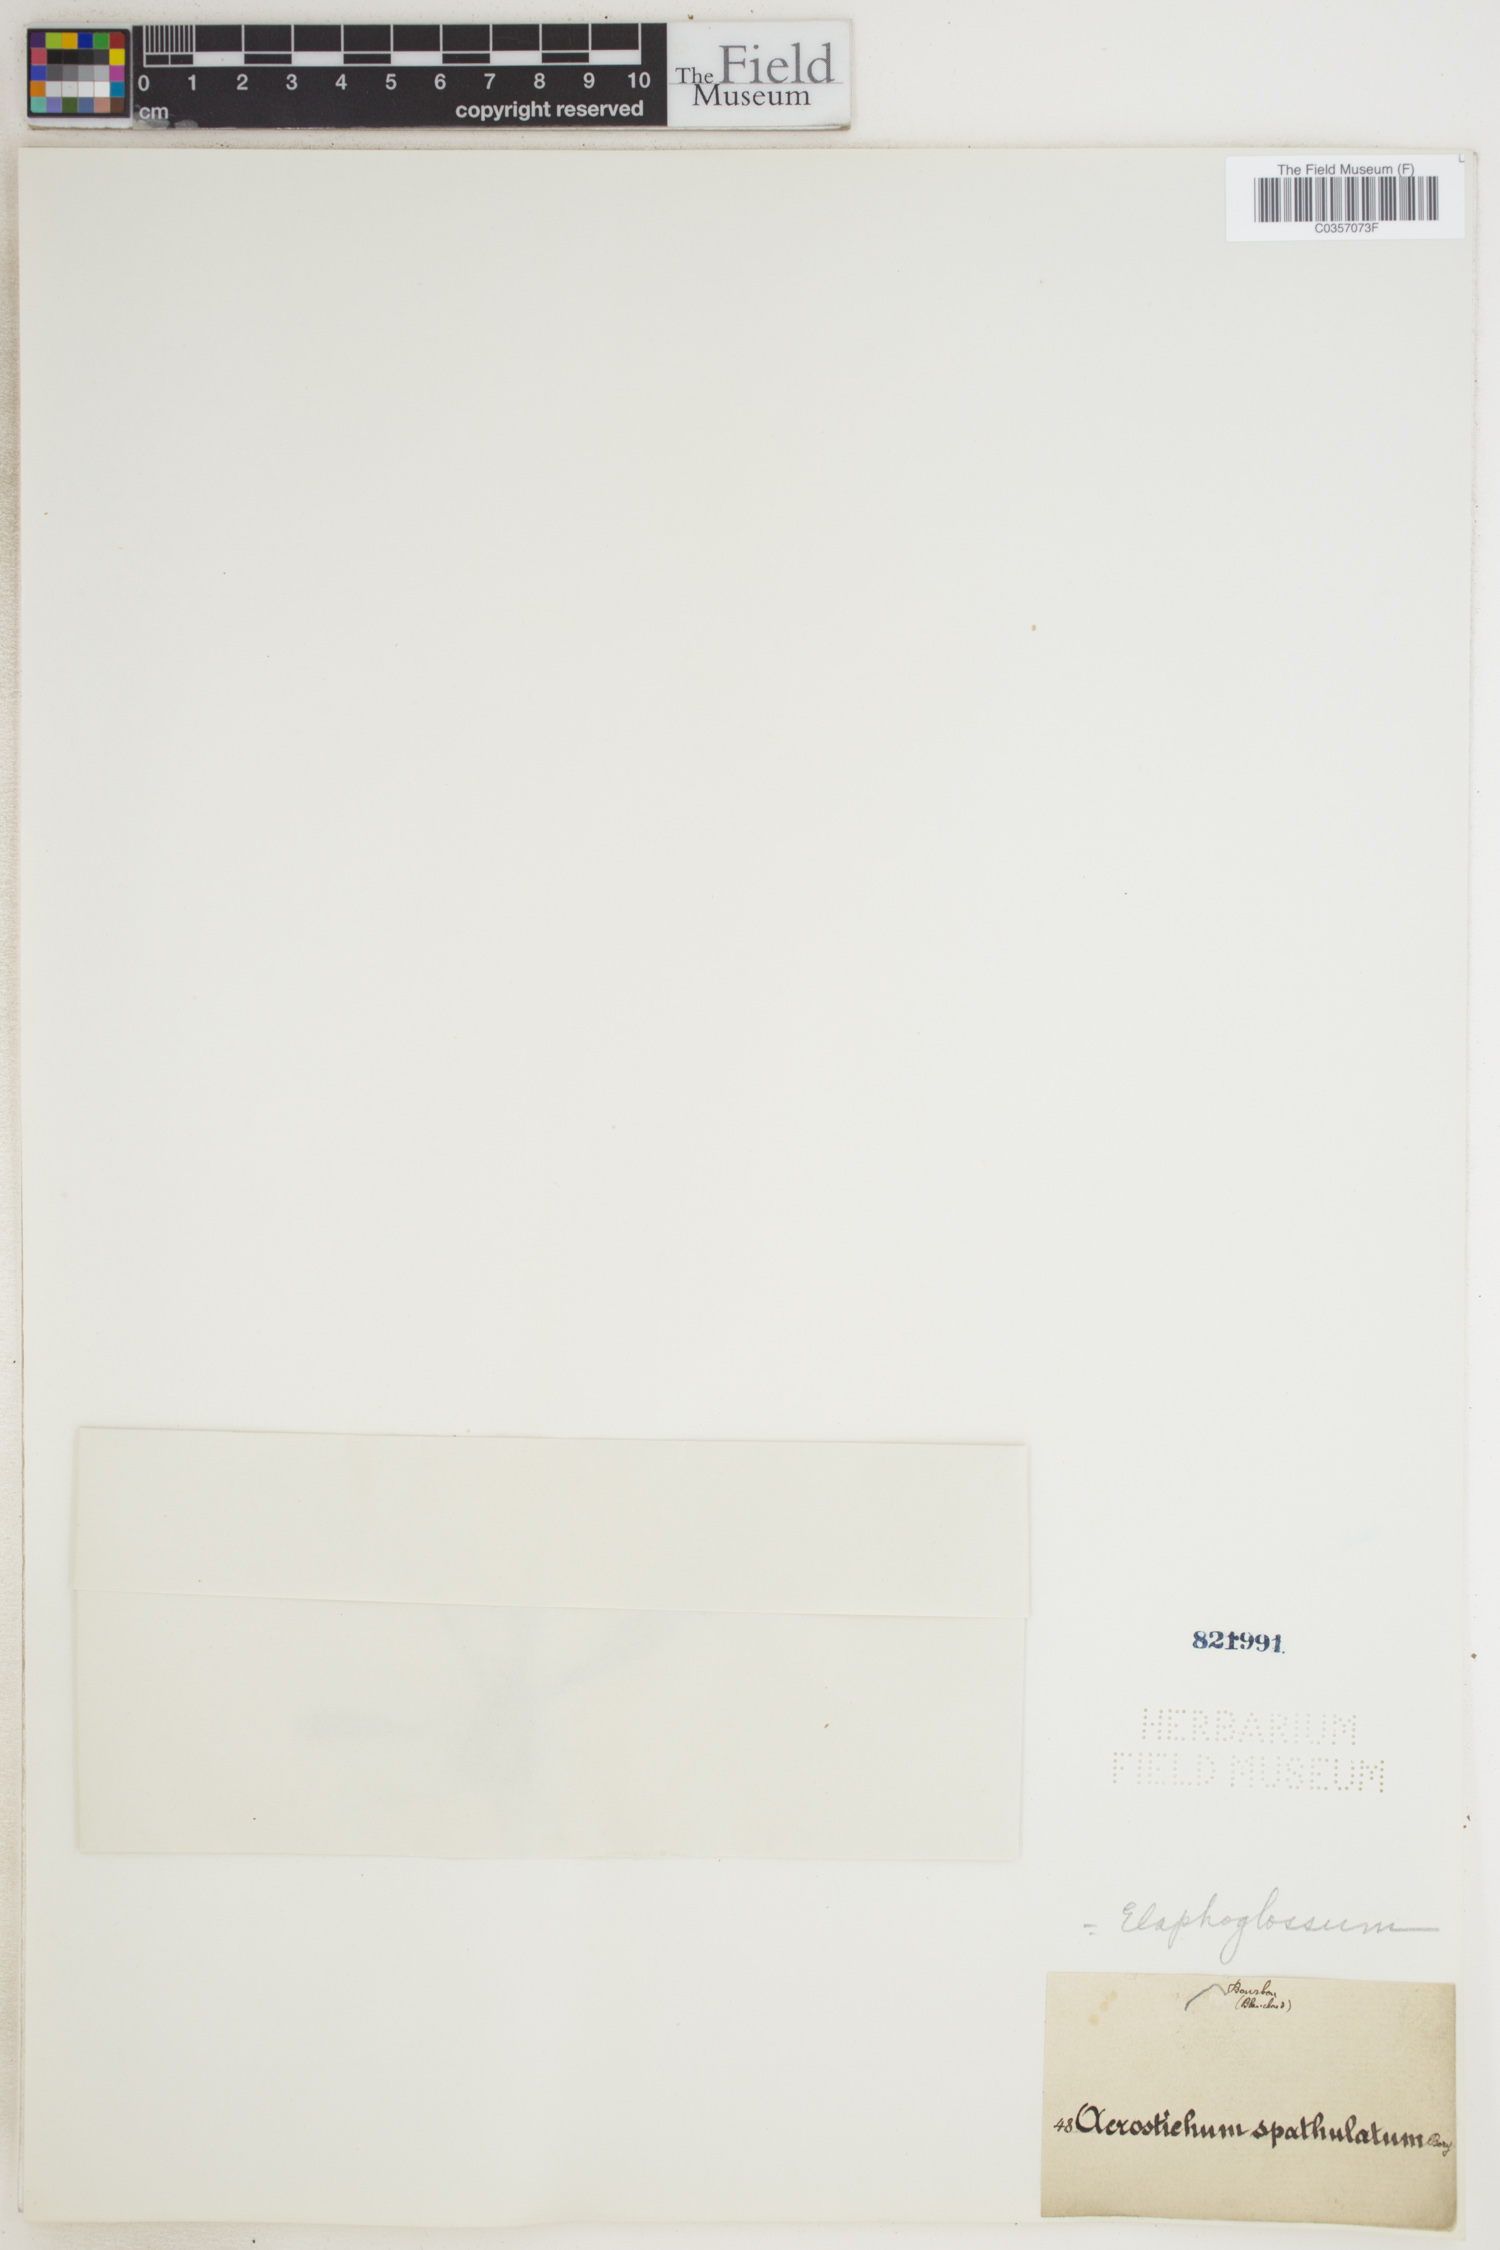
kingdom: Plantae
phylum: Tracheophyta
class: Polypodiopsida
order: Polypodiales
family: Dryopteridaceae
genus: Elaphoglossum
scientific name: Elaphoglossum spatulatum
